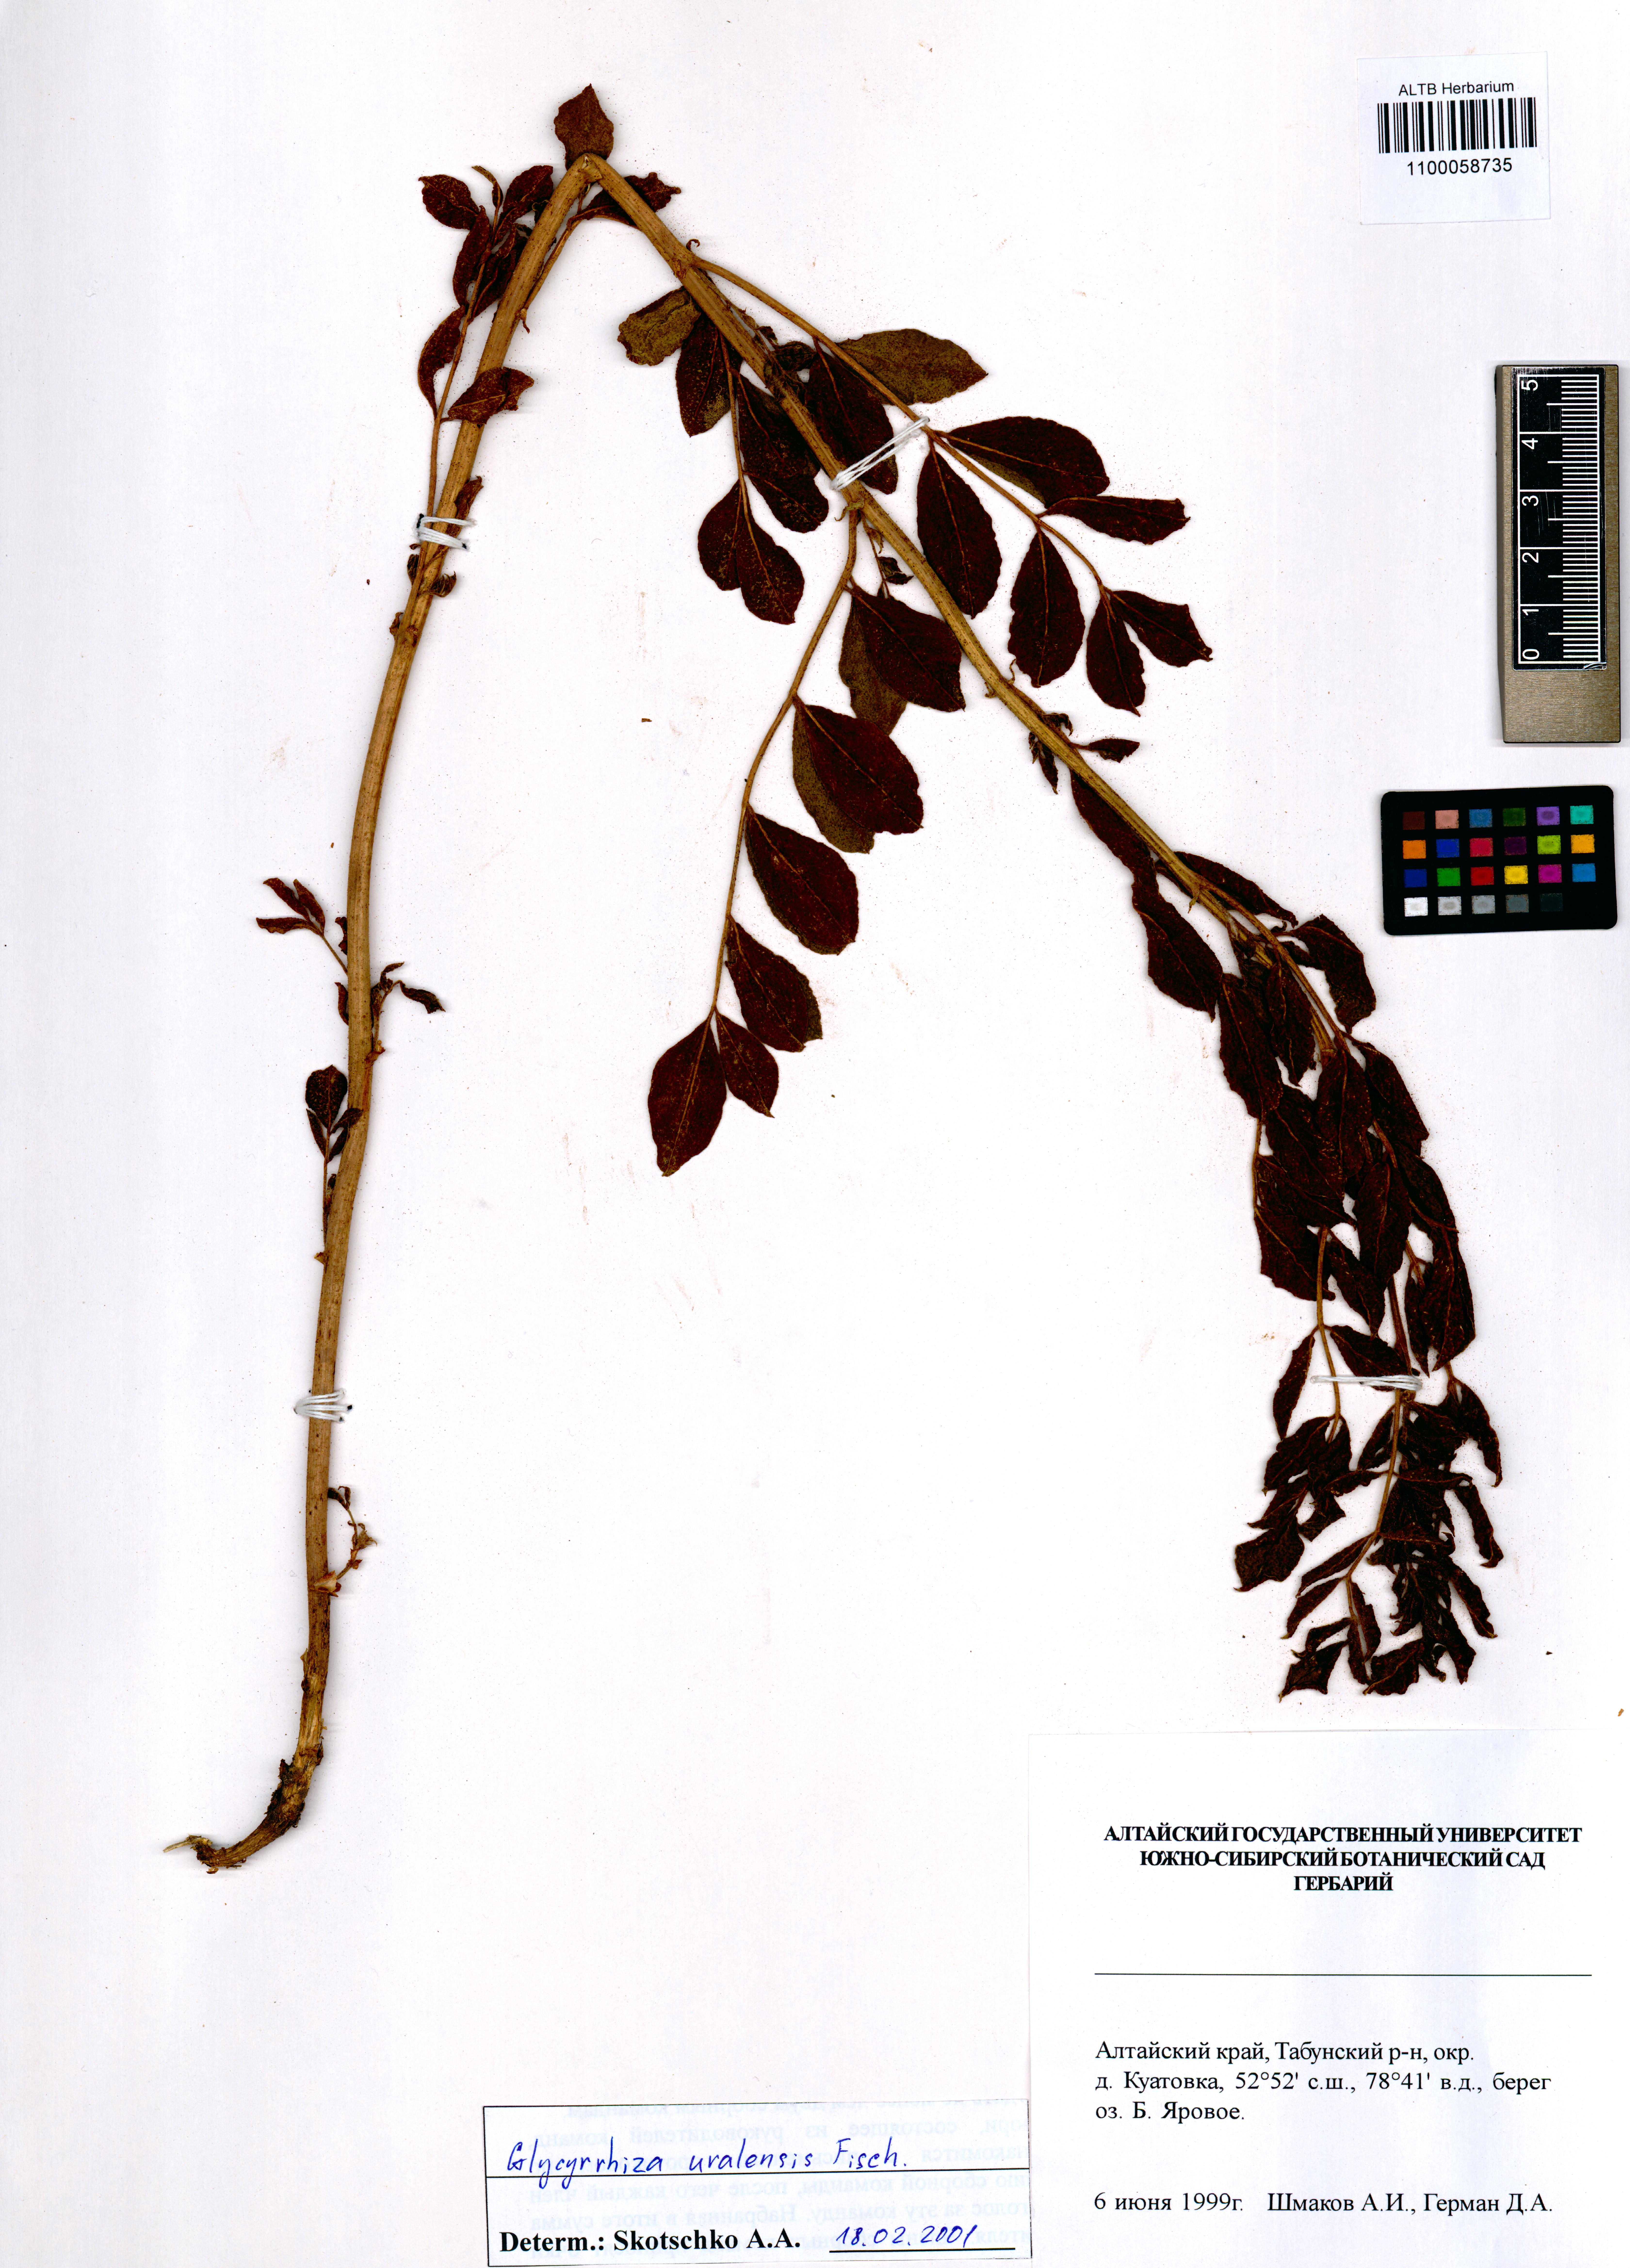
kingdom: Plantae
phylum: Tracheophyta
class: Magnoliopsida
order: Fabales
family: Fabaceae
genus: Glycyrrhiza
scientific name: Glycyrrhiza uralensis
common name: Chinese licorice
